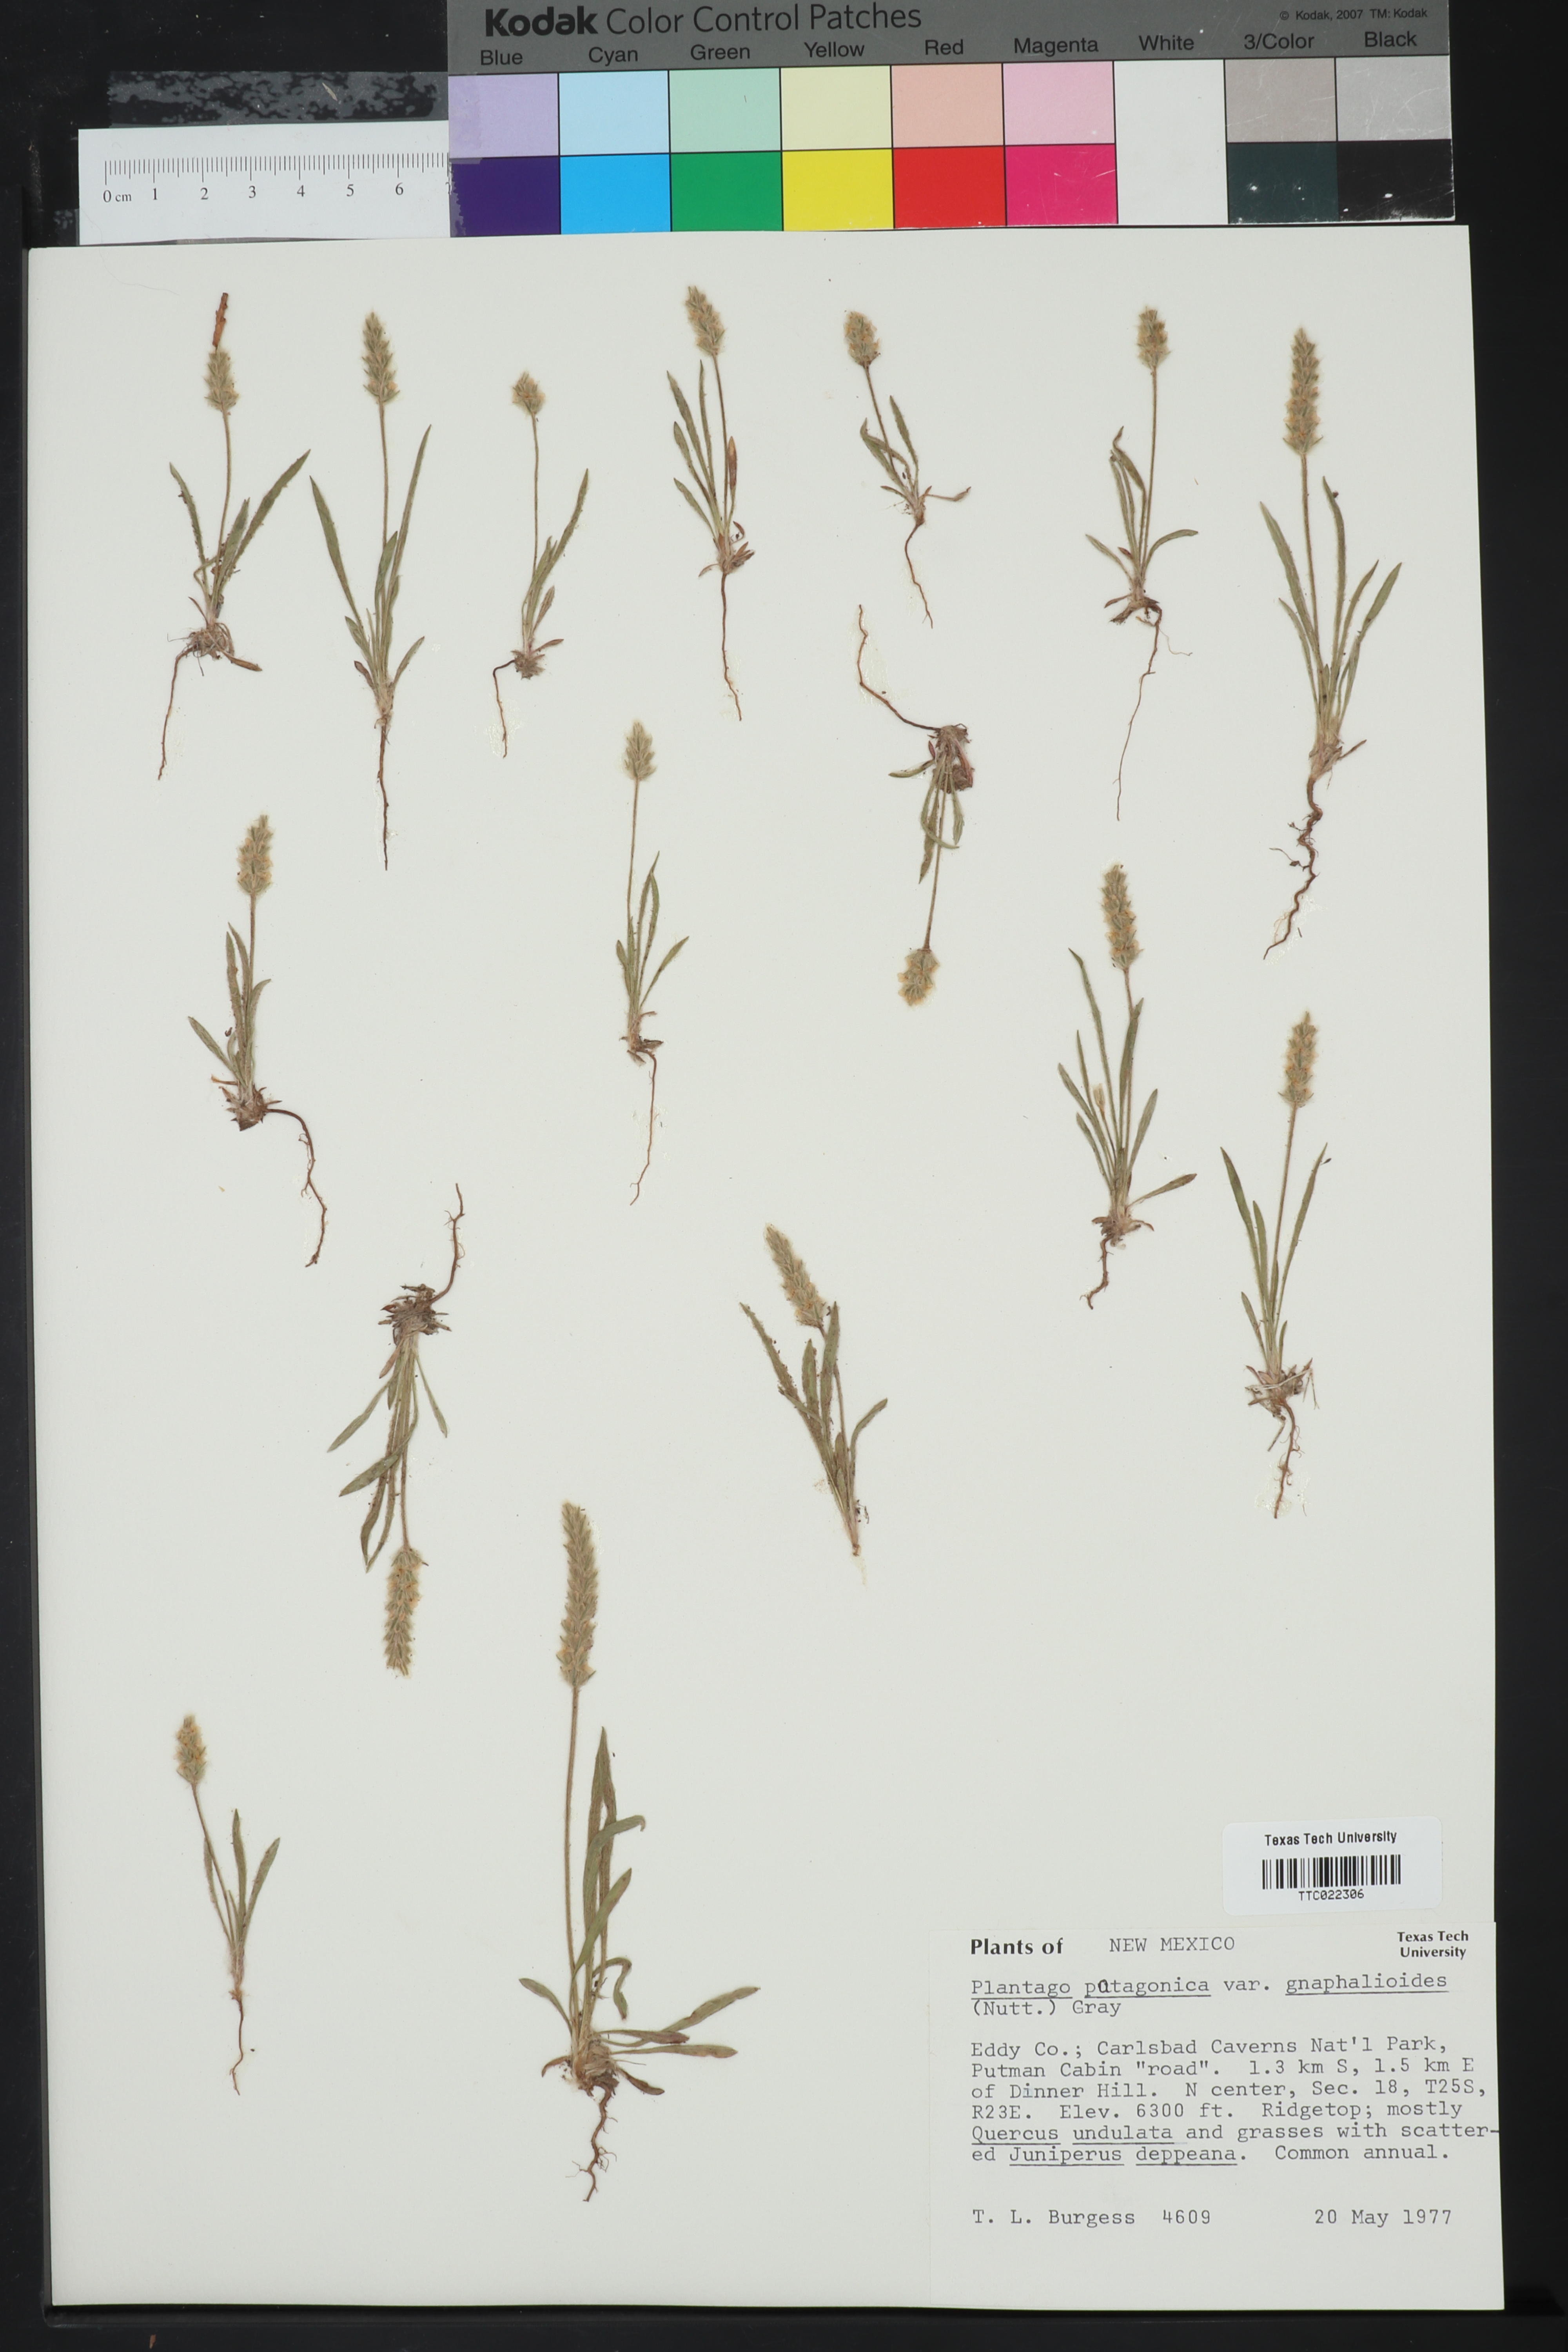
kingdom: Plantae
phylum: Tracheophyta
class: Magnoliopsida
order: Lamiales
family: Plantaginaceae
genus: Plantago
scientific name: Plantago patagonica
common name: Patagonia indian-wheat
